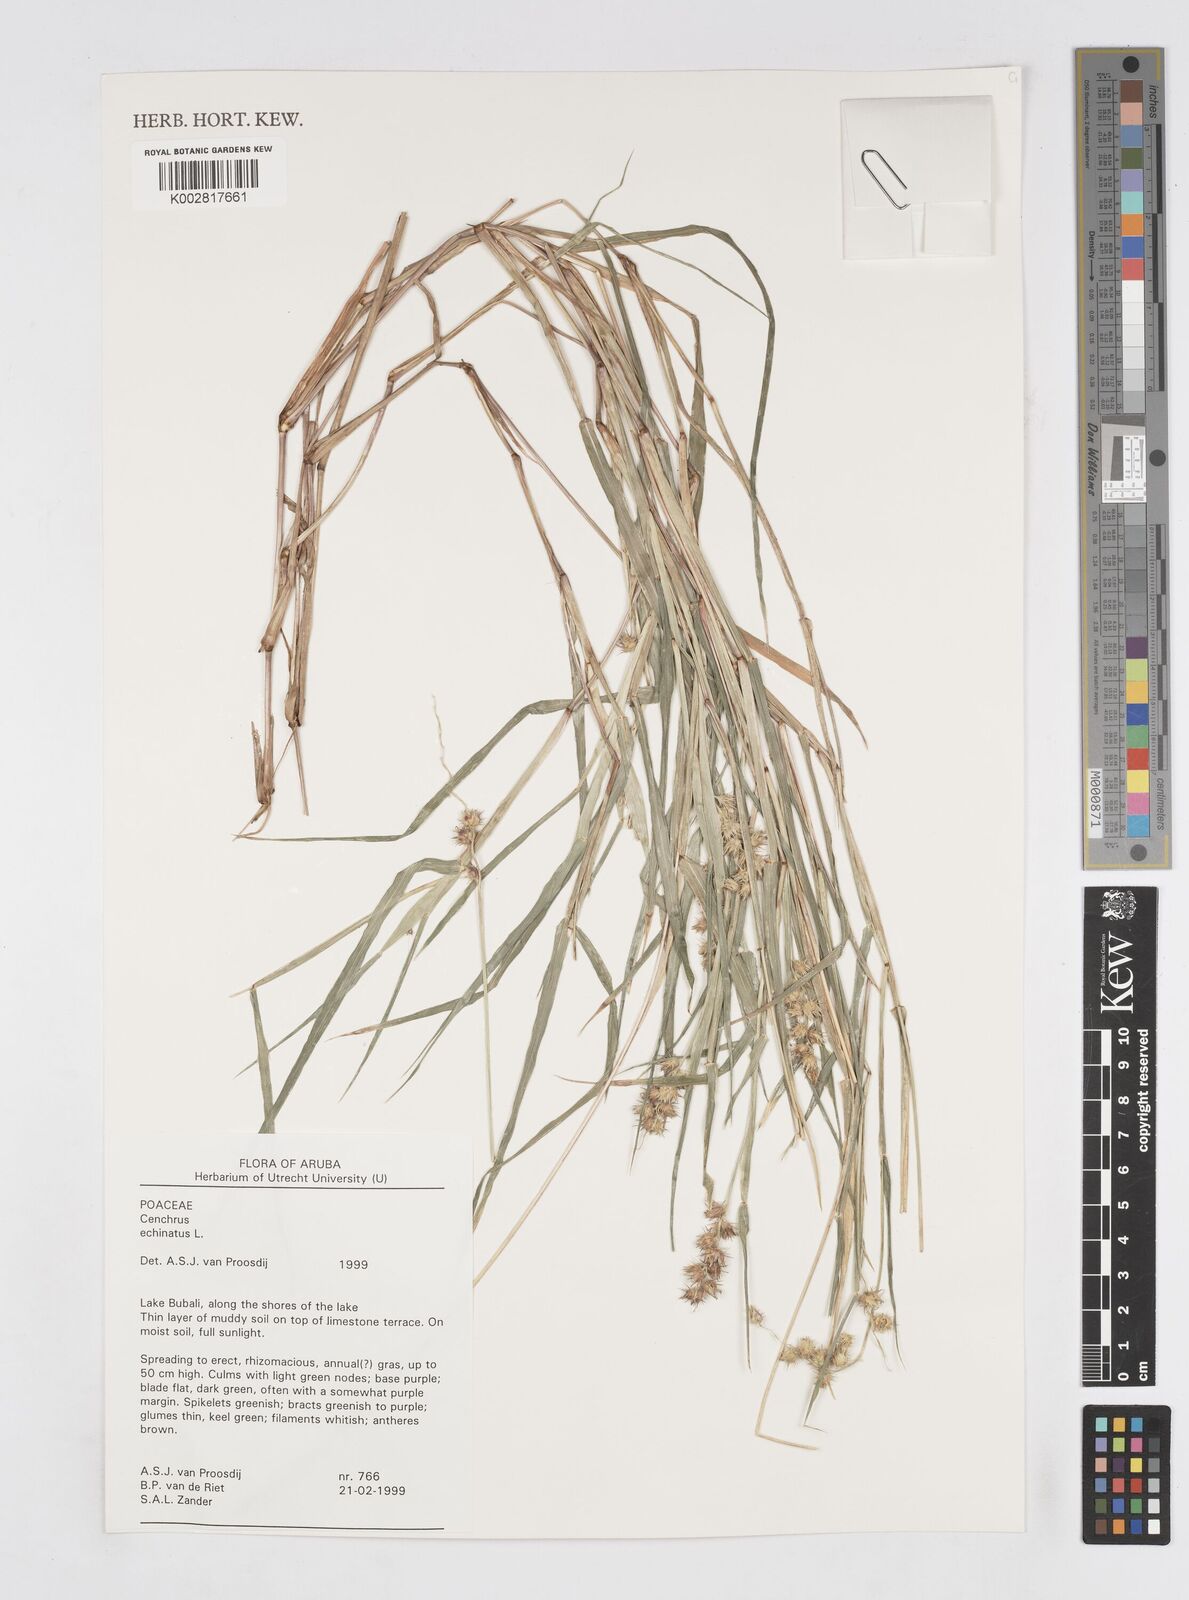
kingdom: Plantae
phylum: Tracheophyta
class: Liliopsida
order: Poales
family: Poaceae
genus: Cenchrus
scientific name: Cenchrus
